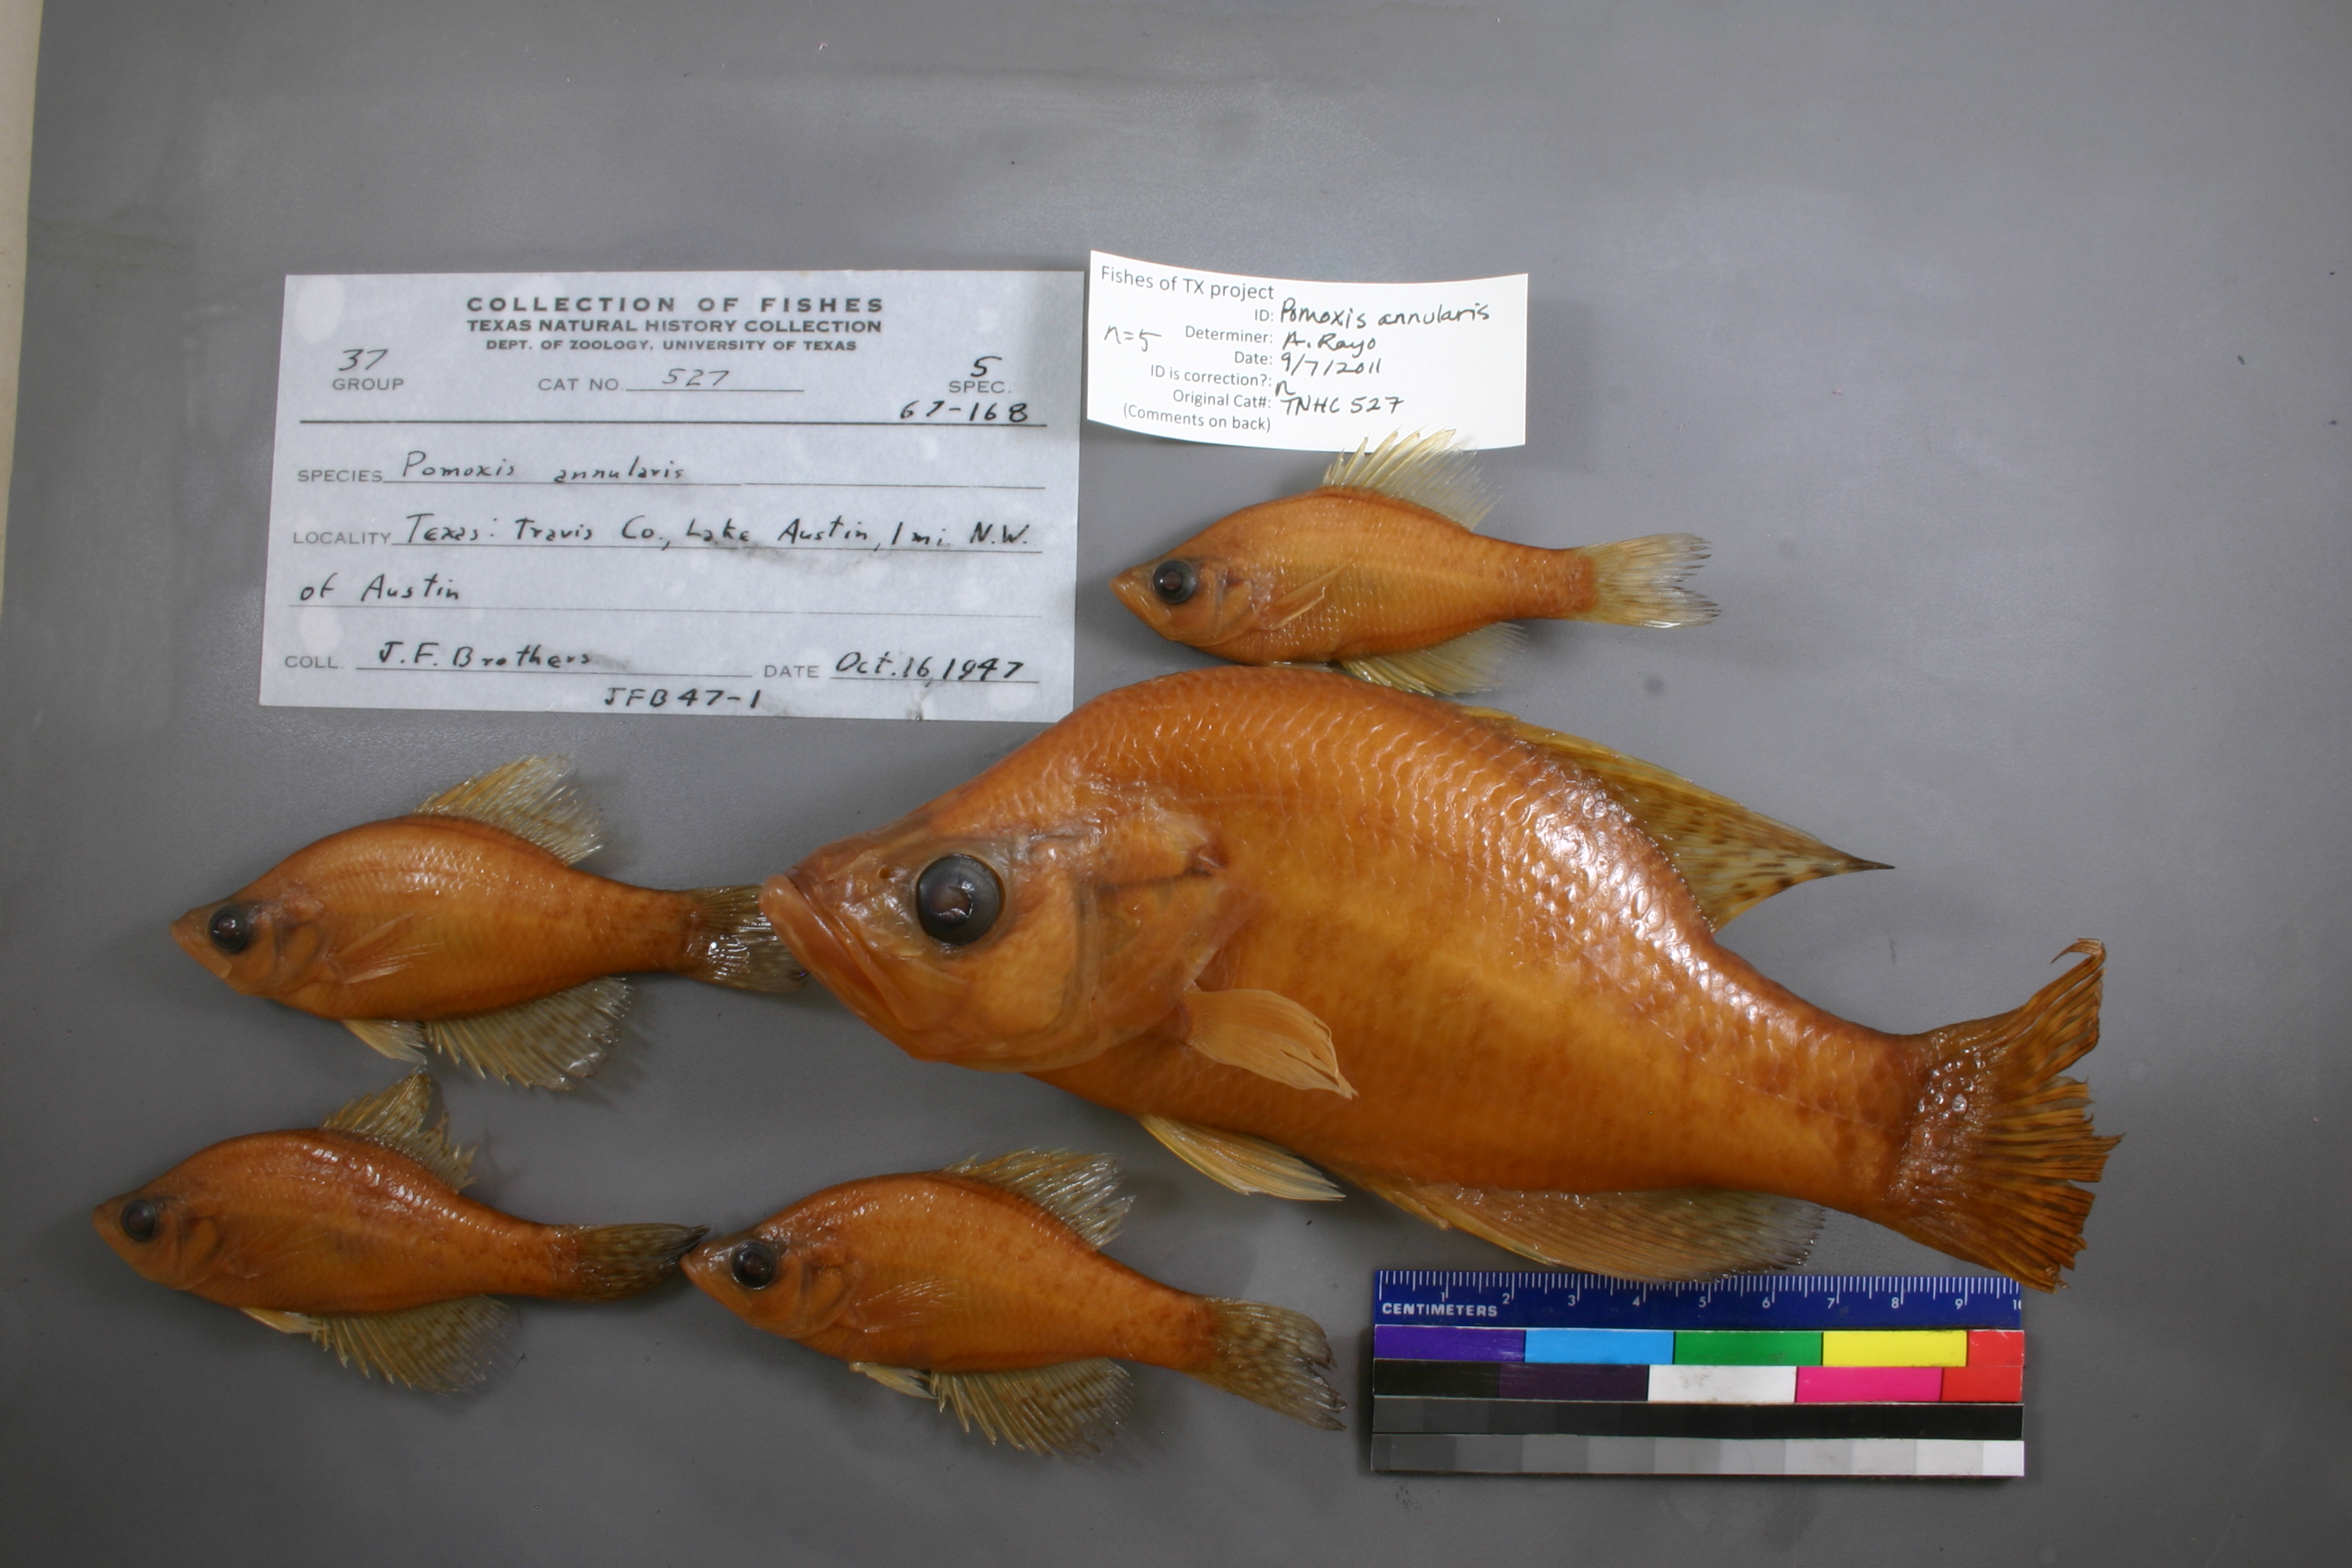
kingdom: Animalia
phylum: Chordata
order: Perciformes
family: Centrarchidae
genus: Pomoxis
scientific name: Pomoxis annularis
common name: White crappie
